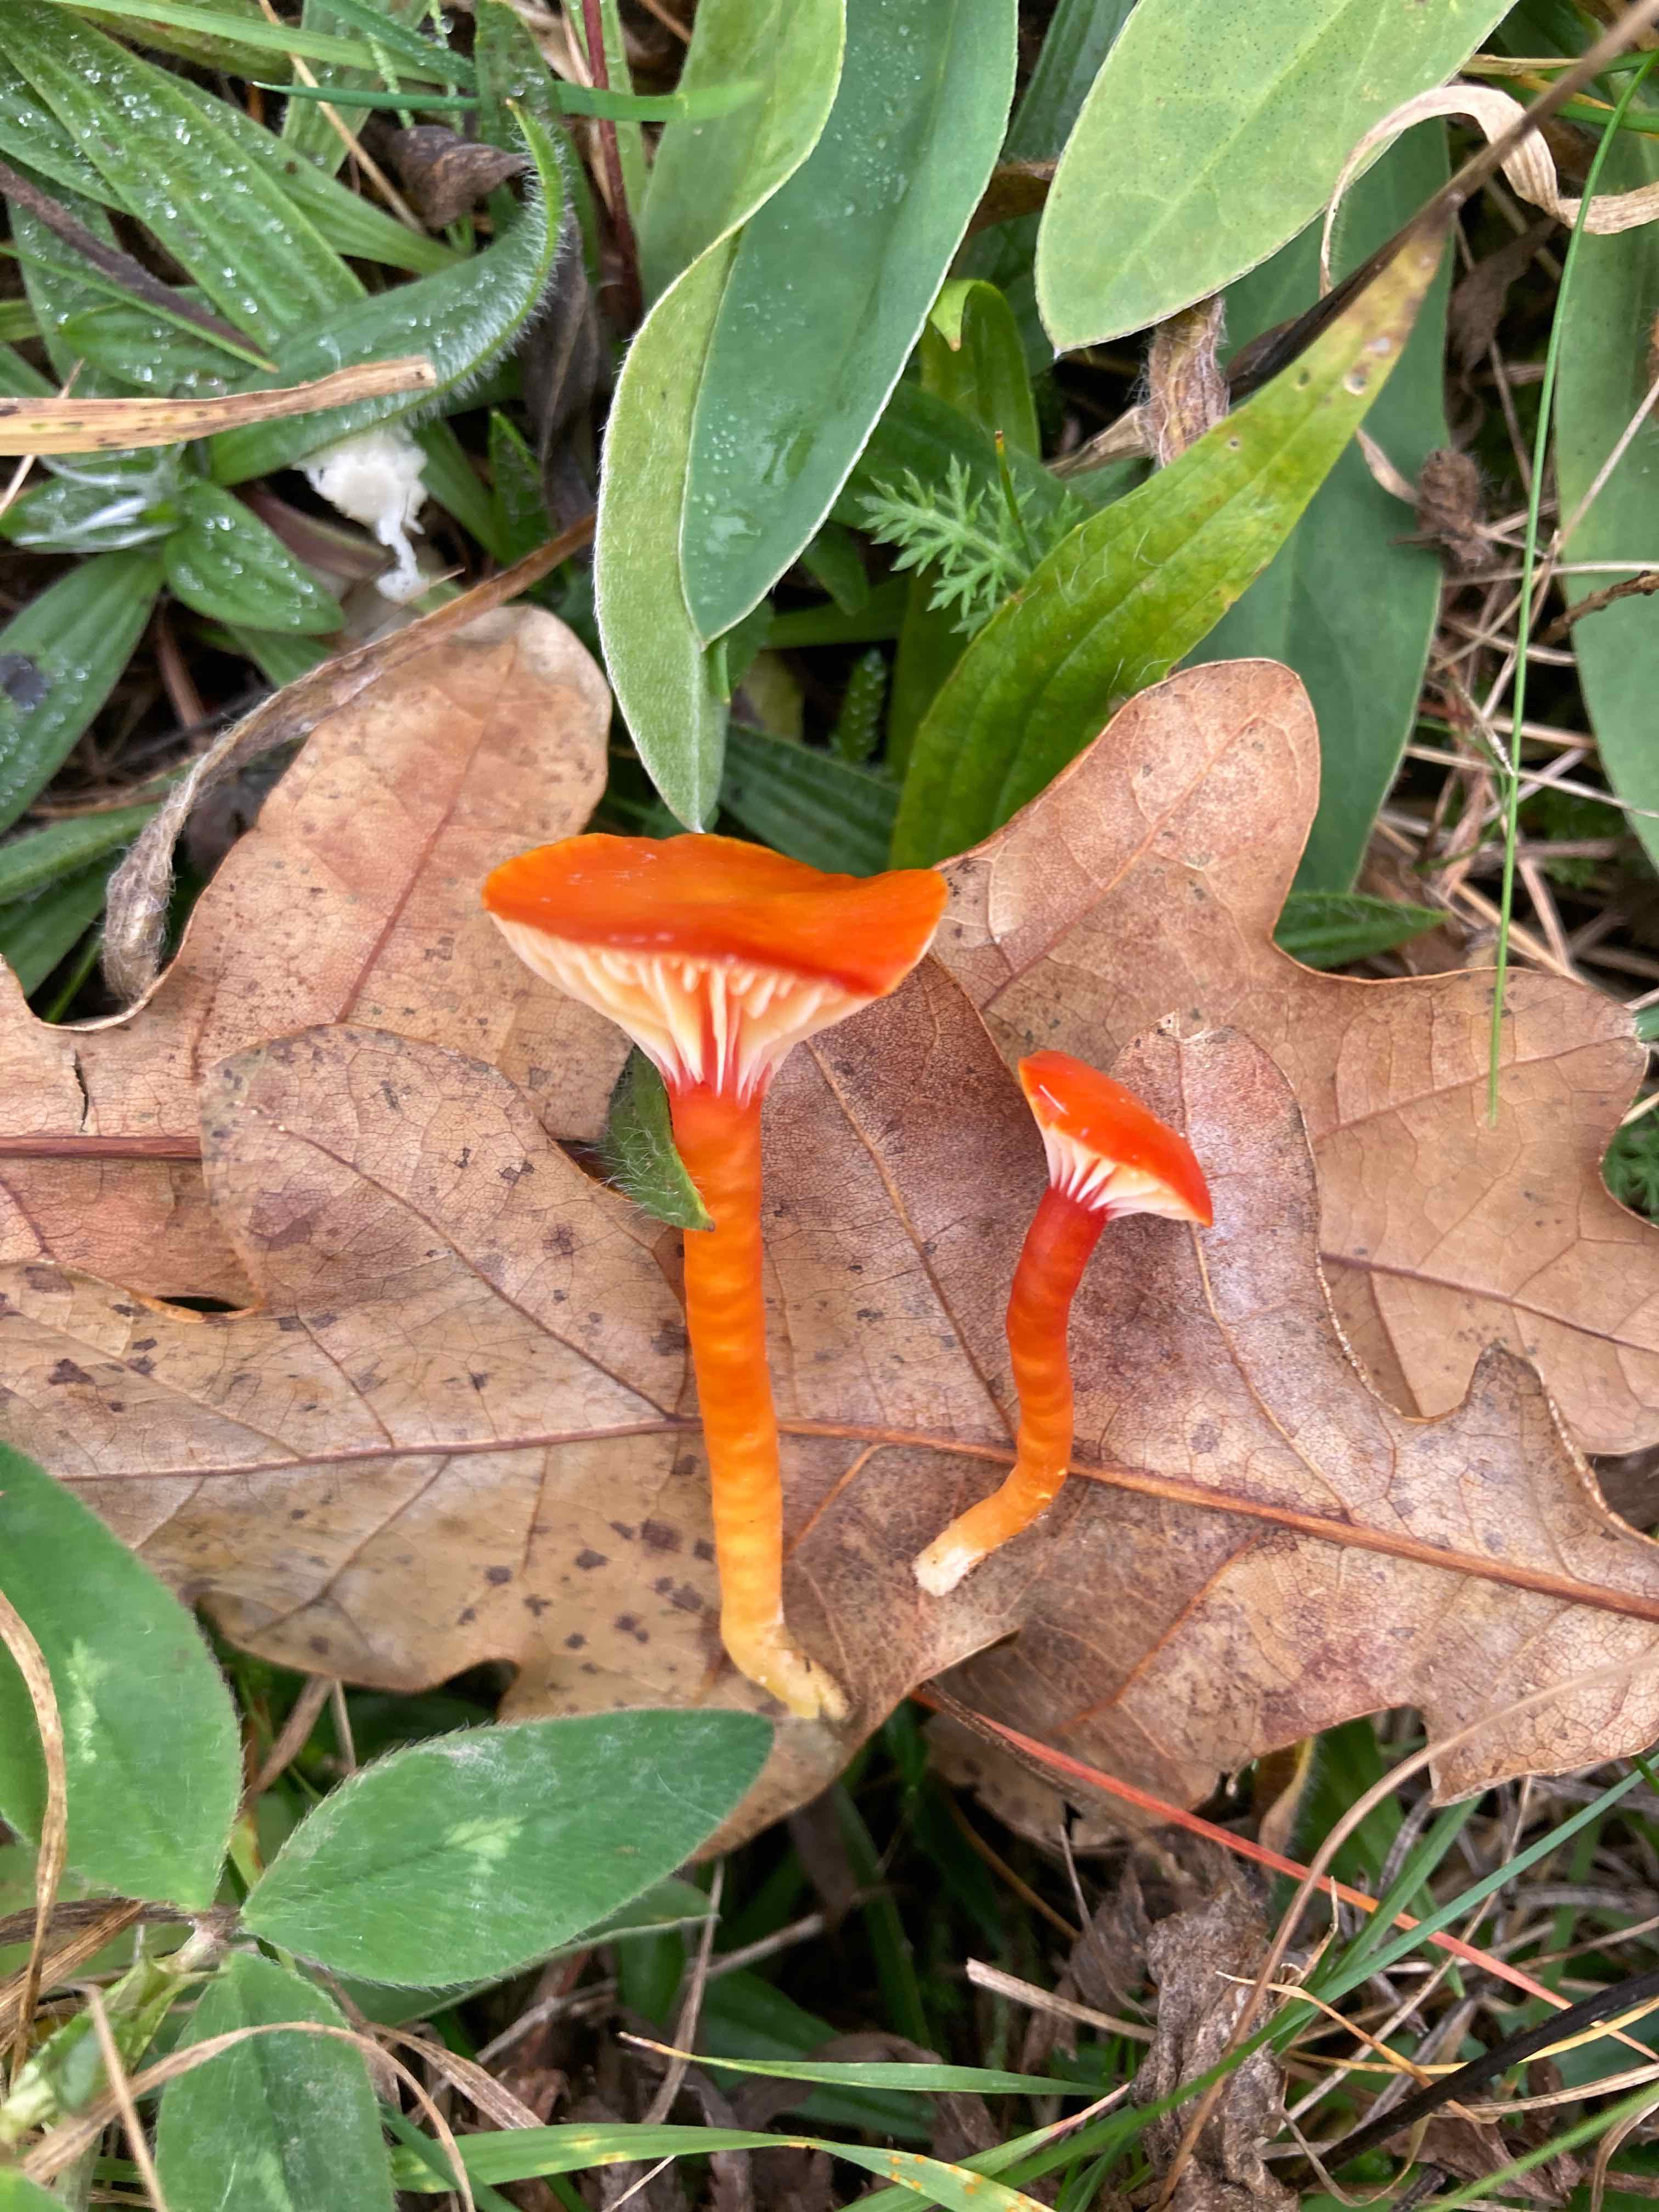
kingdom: Fungi
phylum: Basidiomycota
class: Agaricomycetes
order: Agaricales
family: Hygrophoraceae
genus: Hygrocybe
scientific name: Hygrocybe insipida
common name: liden vokshat
